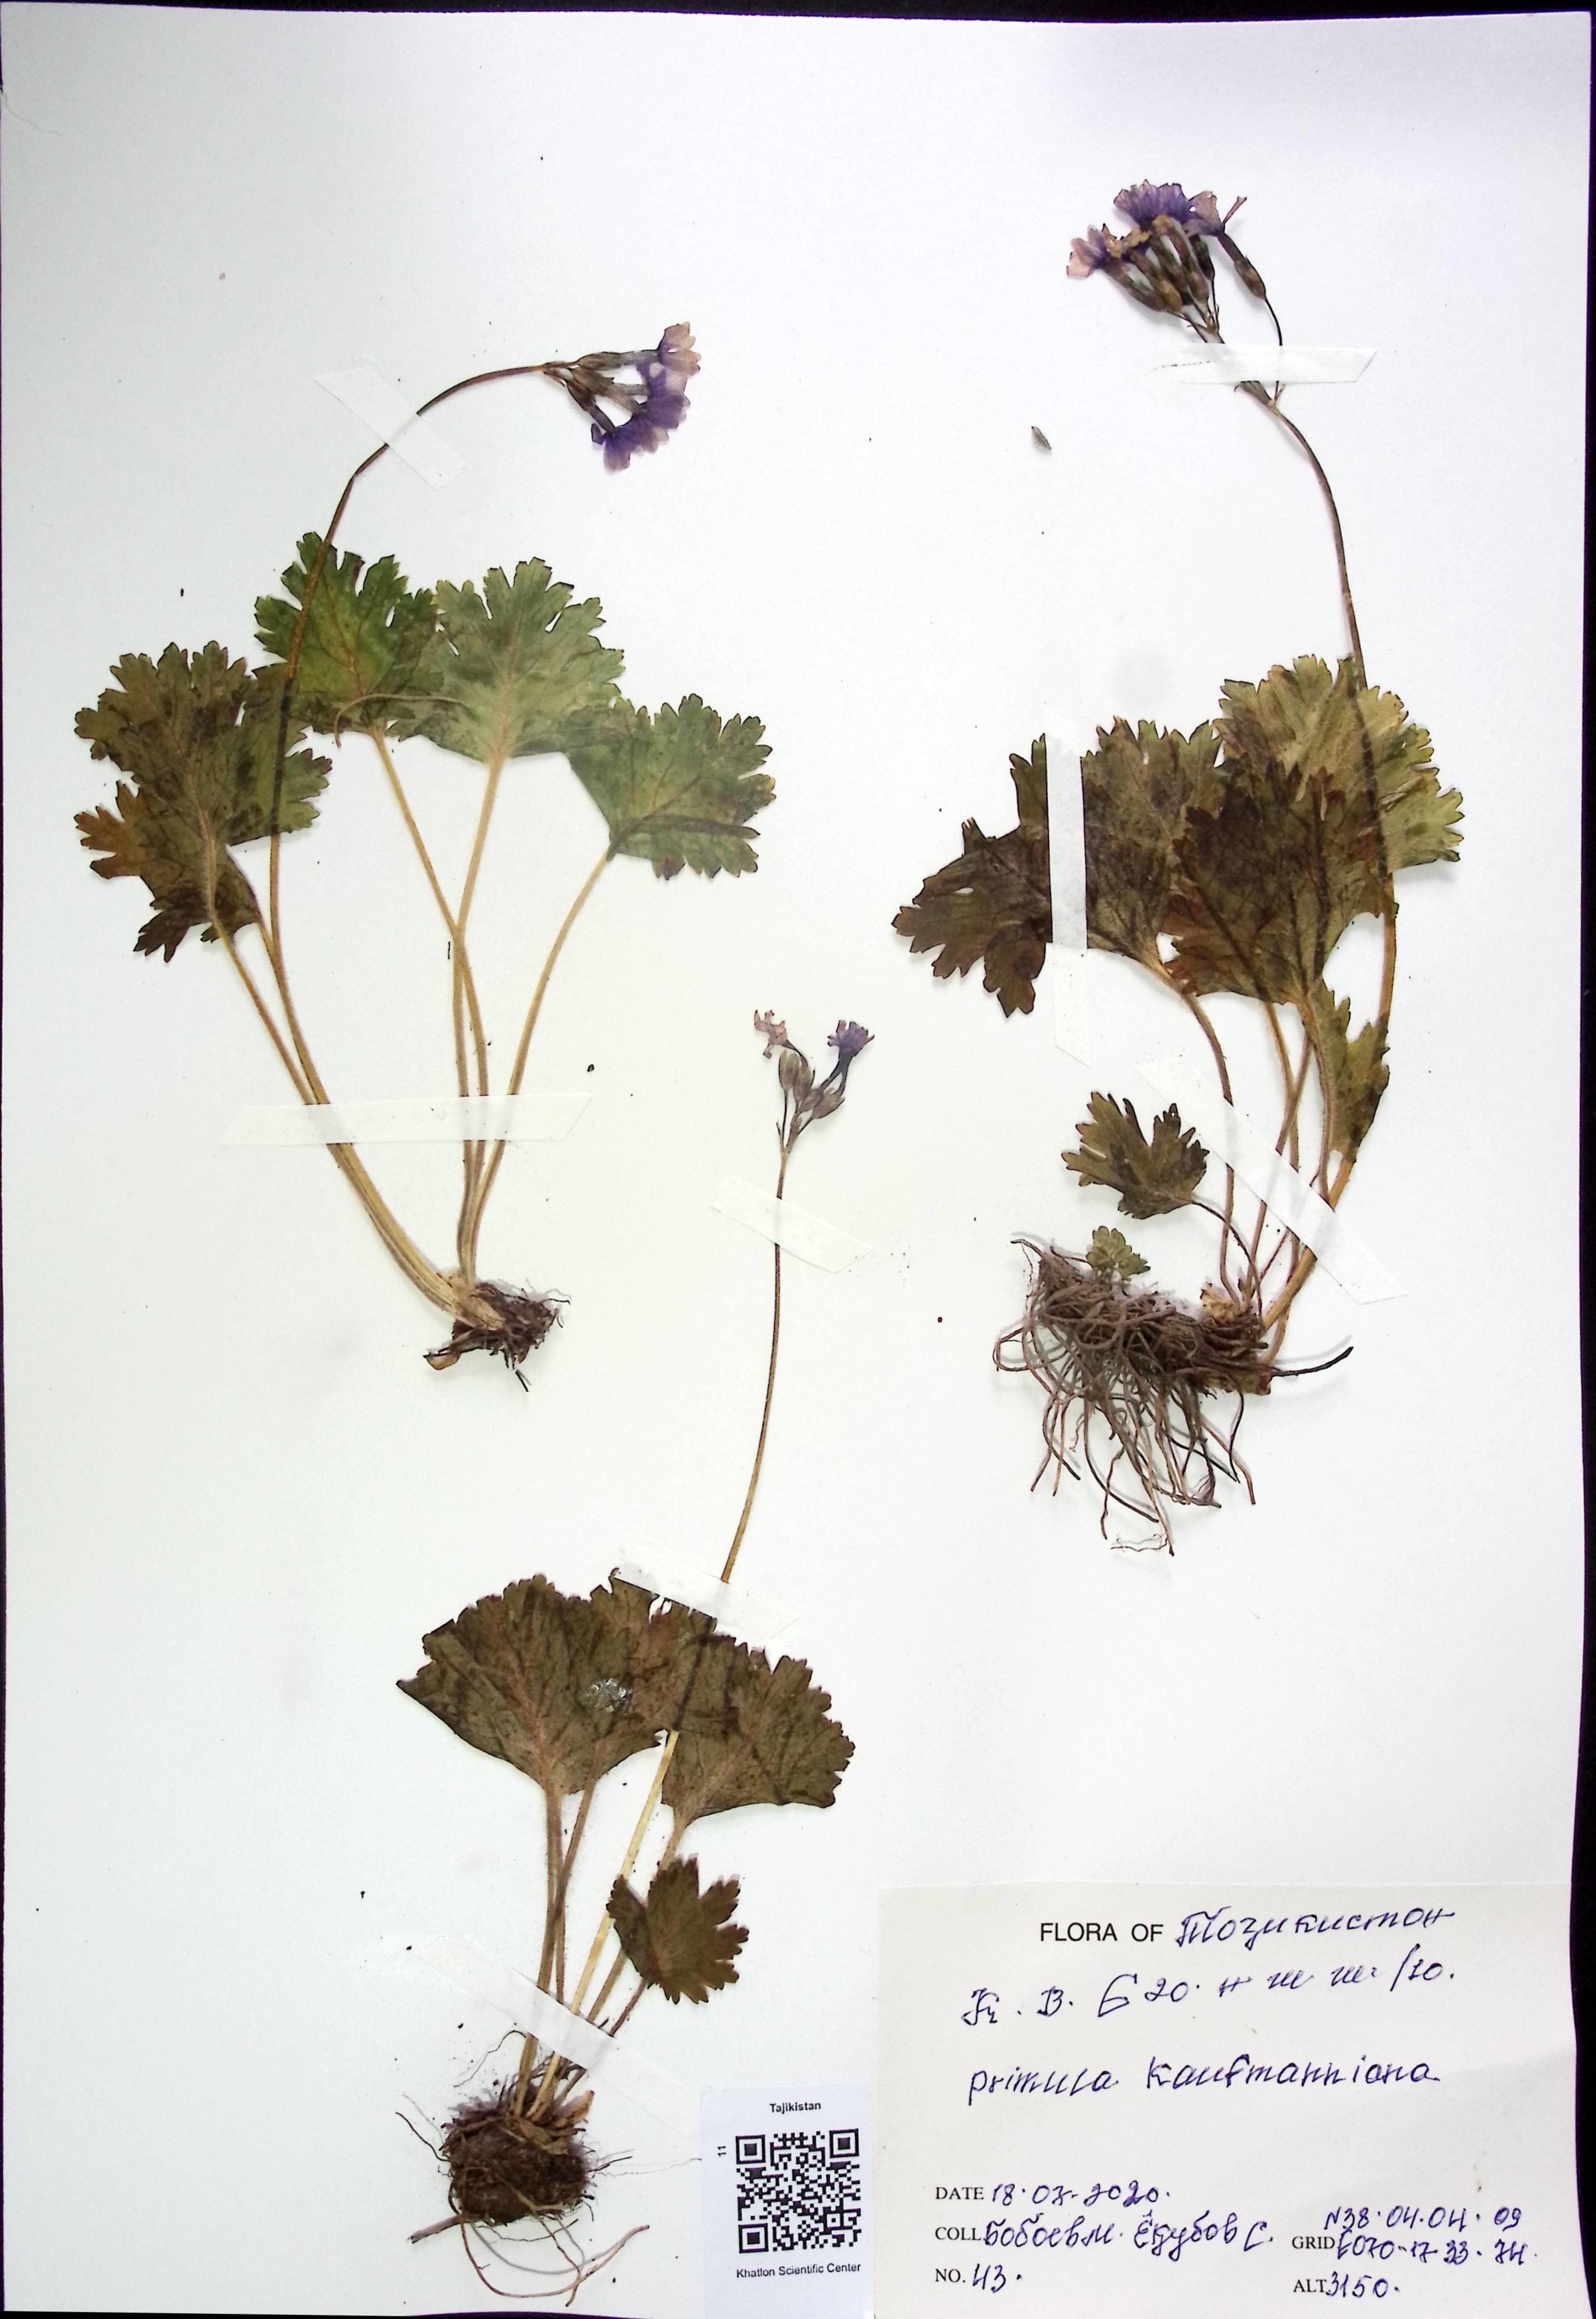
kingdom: Plantae
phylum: Tracheophyta
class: Magnoliopsida
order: Ericales
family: Primulaceae
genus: Primula
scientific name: Primula kaufmanniana
